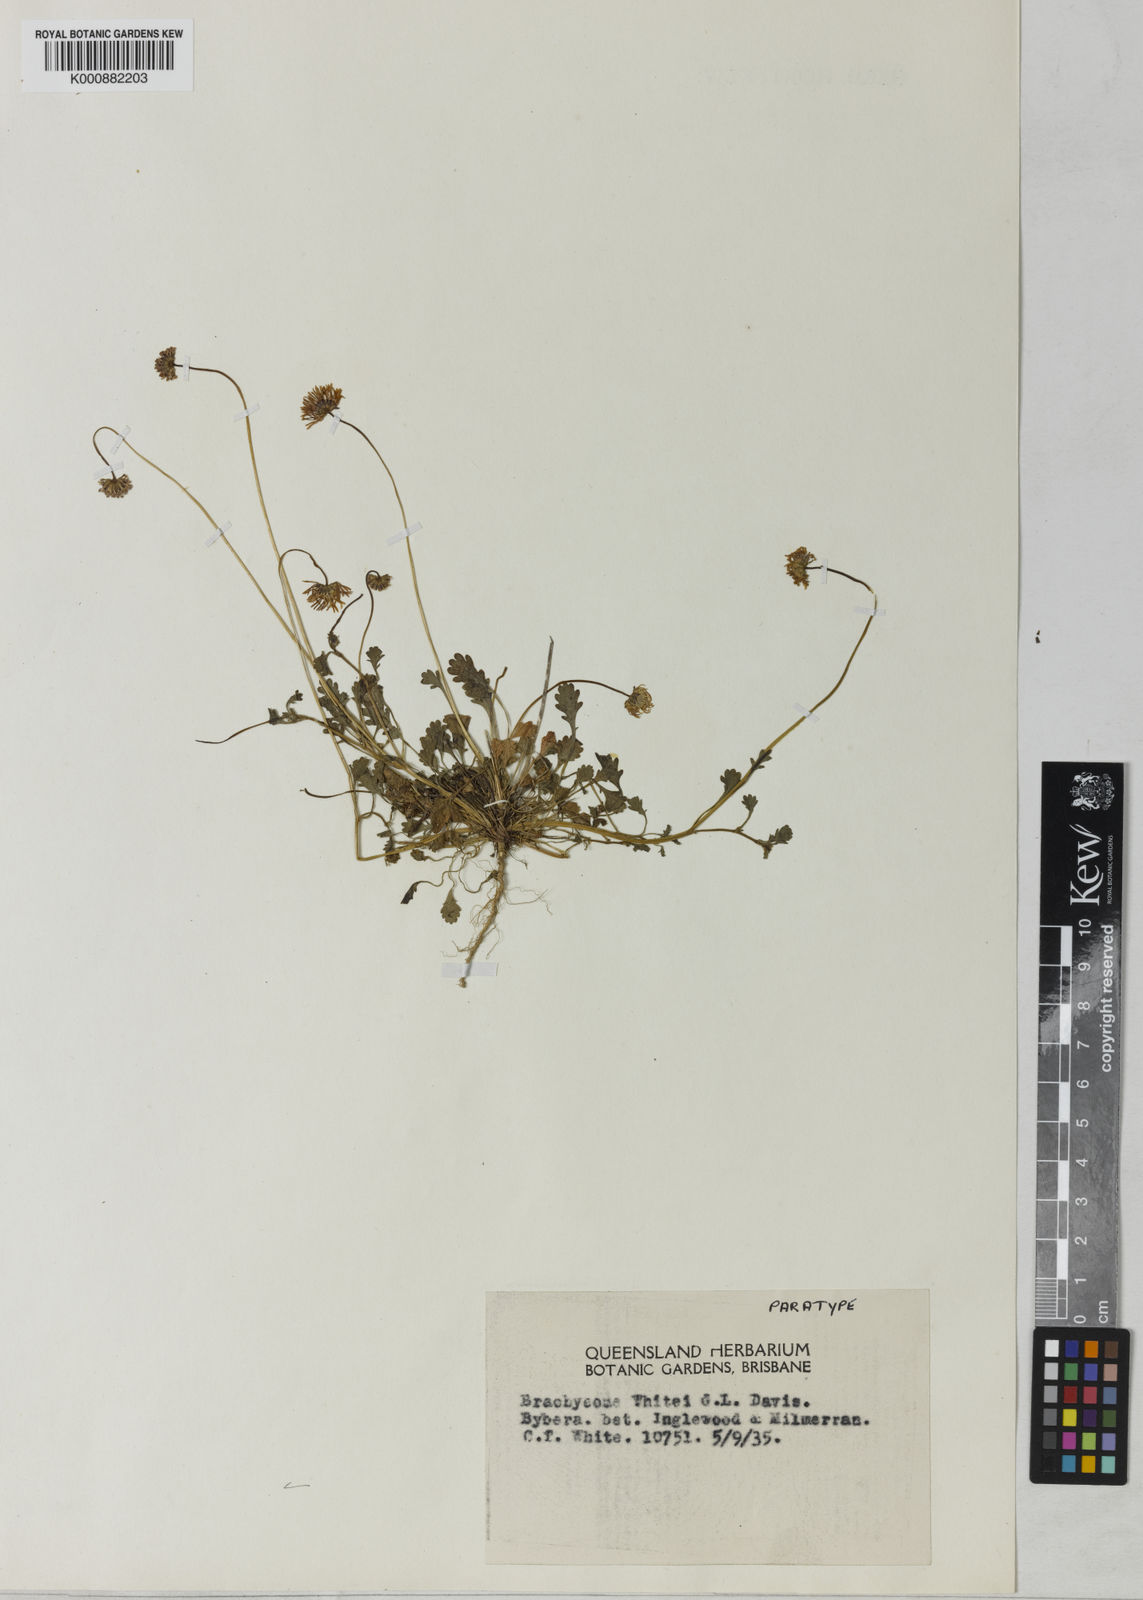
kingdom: Plantae
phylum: Tracheophyta
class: Magnoliopsida
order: Asterales
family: Asteraceae
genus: Brachyscome
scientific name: Brachyscome whitei
